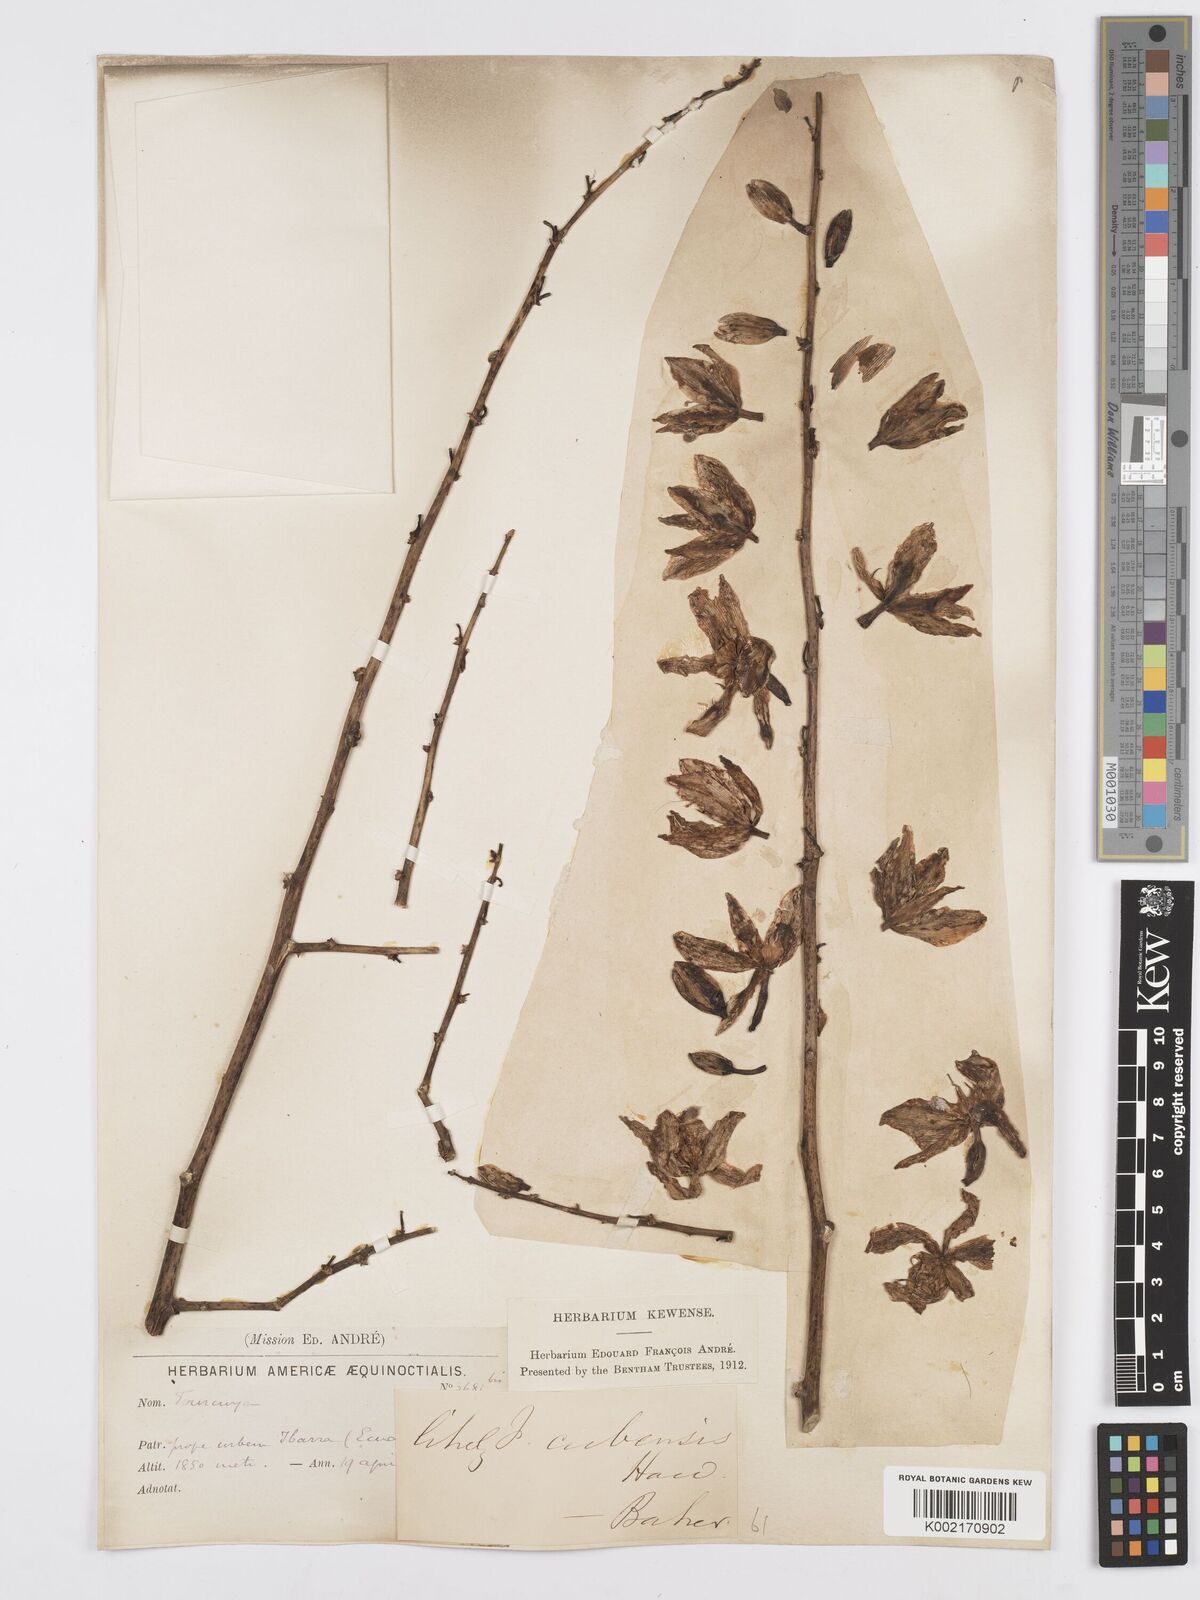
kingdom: Plantae
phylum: Tracheophyta
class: Liliopsida
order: Asparagales
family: Asparagaceae
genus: Furcraea
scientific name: Furcraea hexapetala
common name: Cuban-hemp
